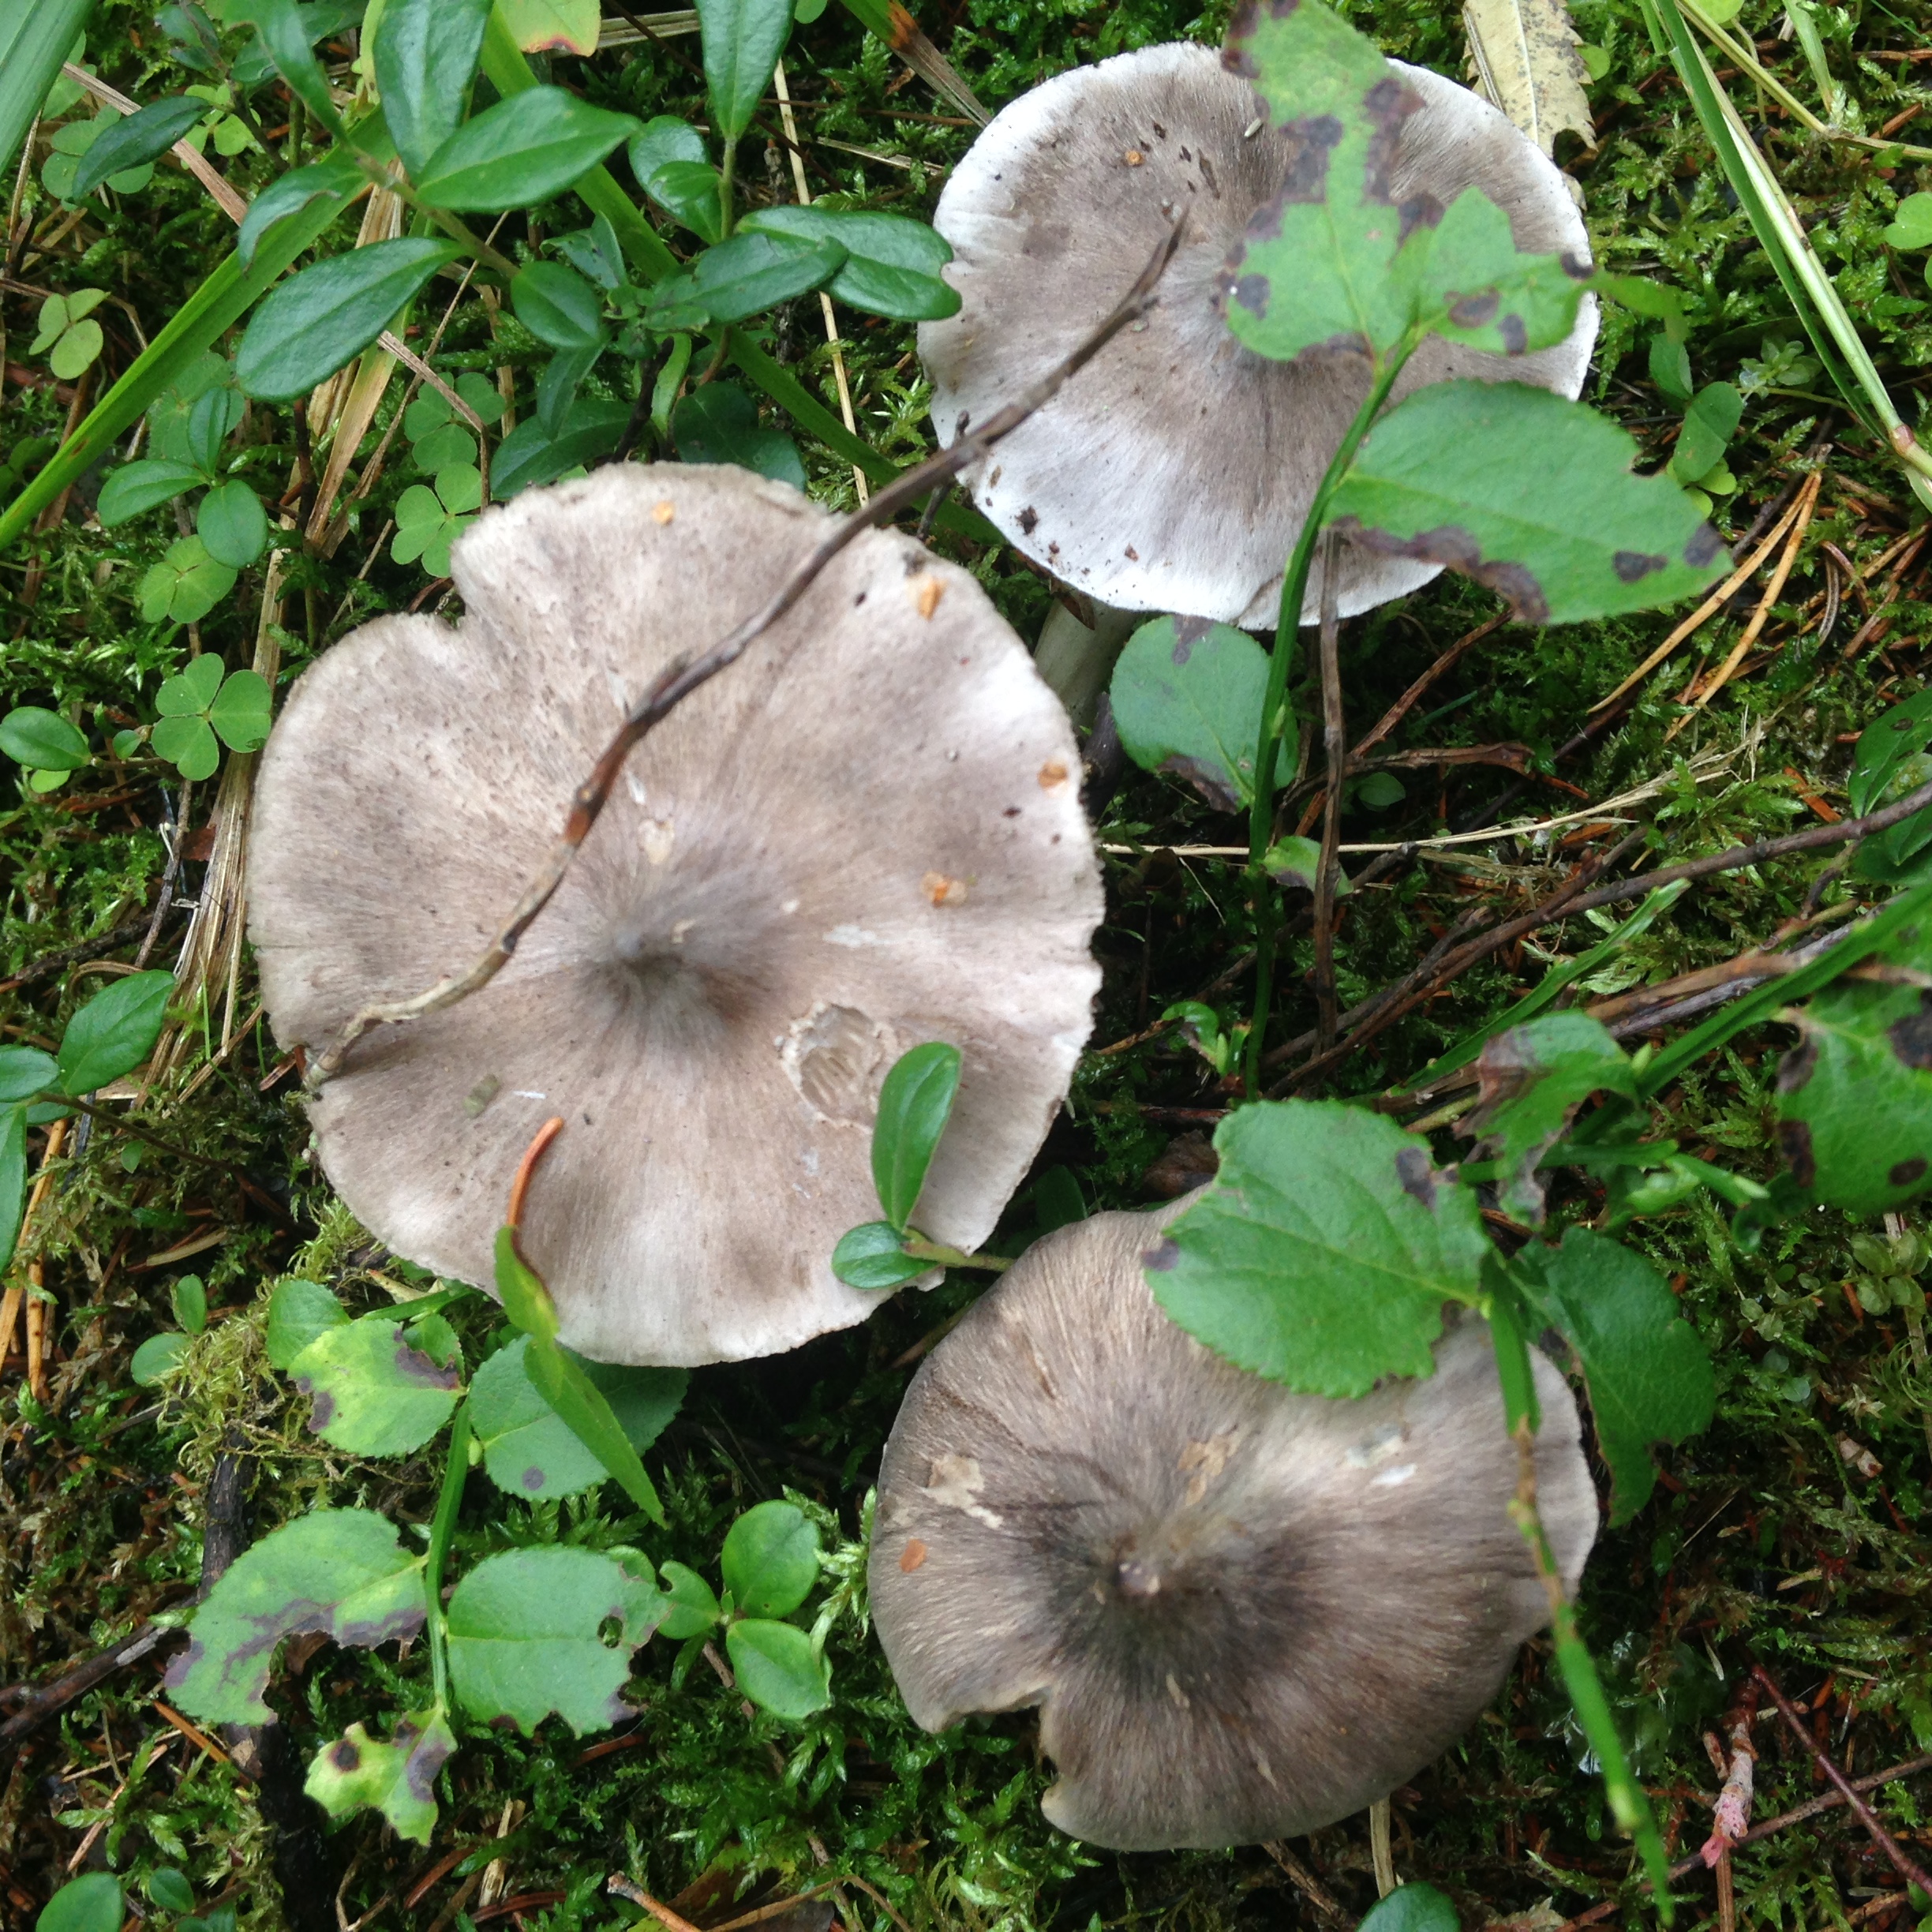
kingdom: Fungi
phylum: Basidiomycota
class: Agaricomycetes
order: Agaricales
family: Tricholomataceae
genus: Tricholoma
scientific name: Tricholoma virgatum
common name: Ashen knight
